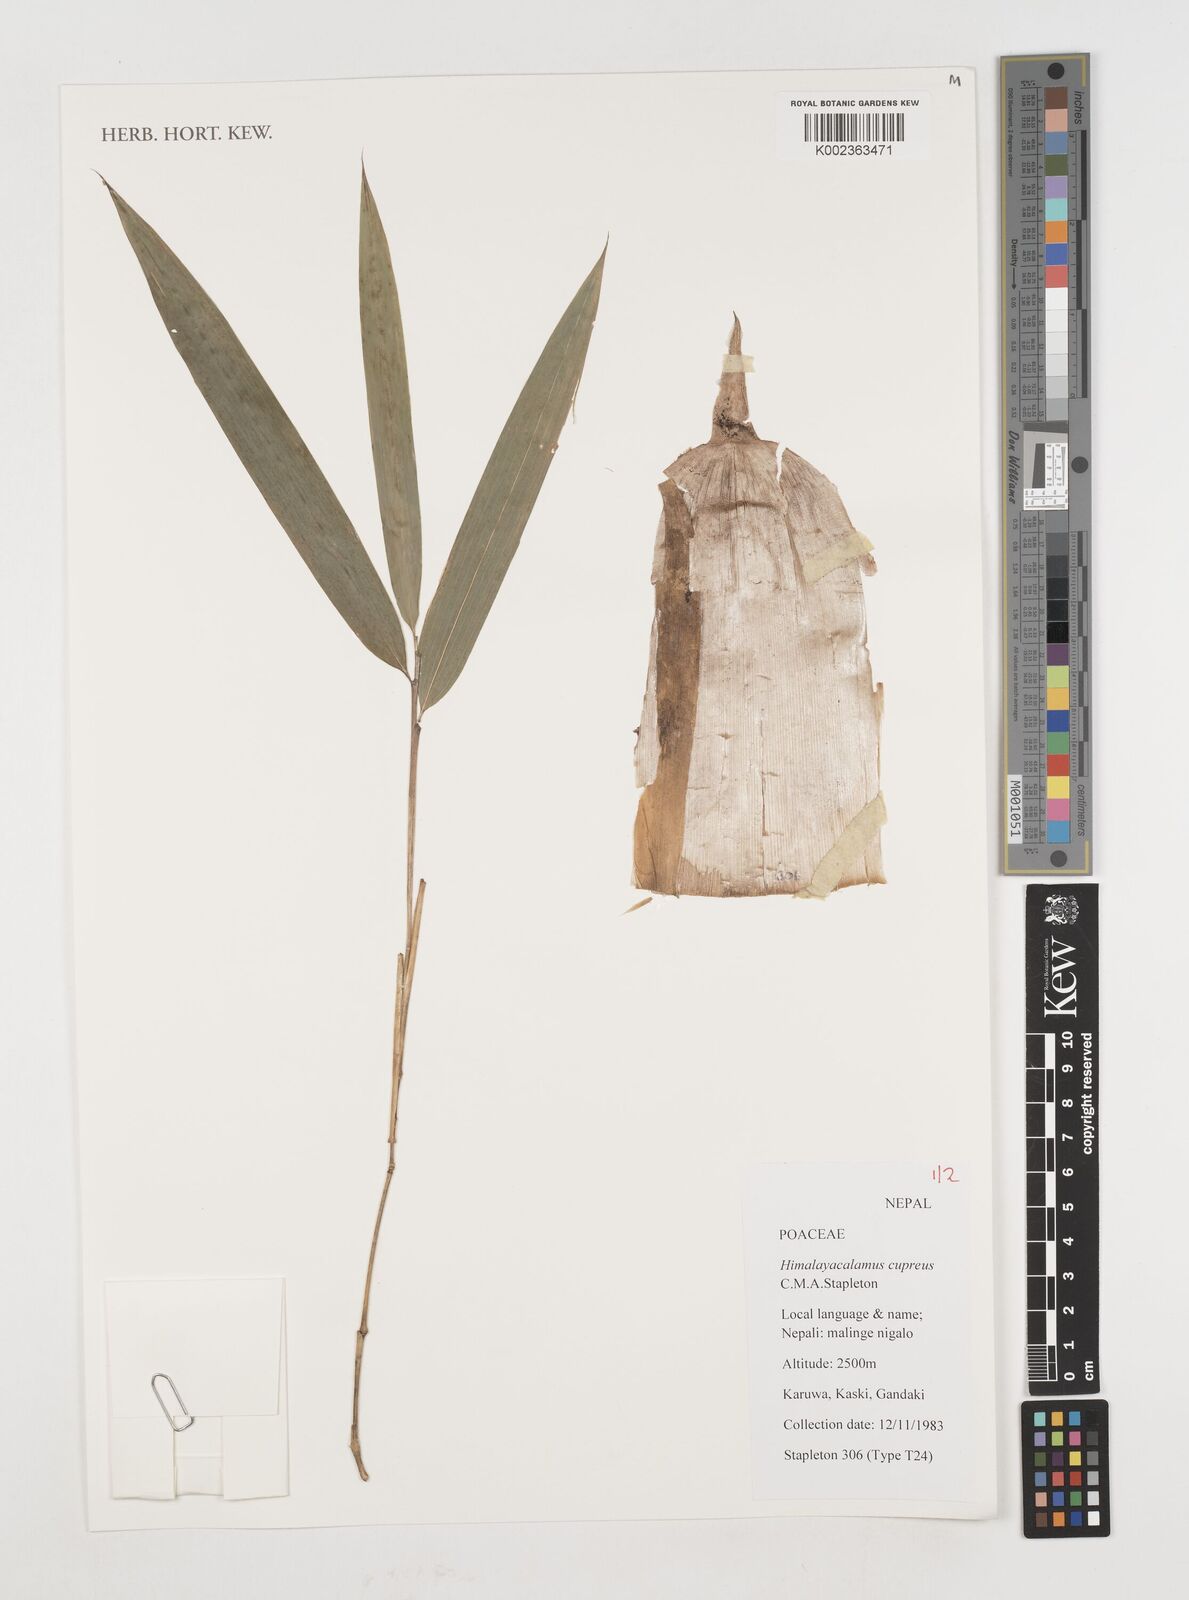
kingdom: Plantae
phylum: Tracheophyta
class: Liliopsida
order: Poales
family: Poaceae
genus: Himalayacalamus
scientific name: Himalayacalamus cupreus
